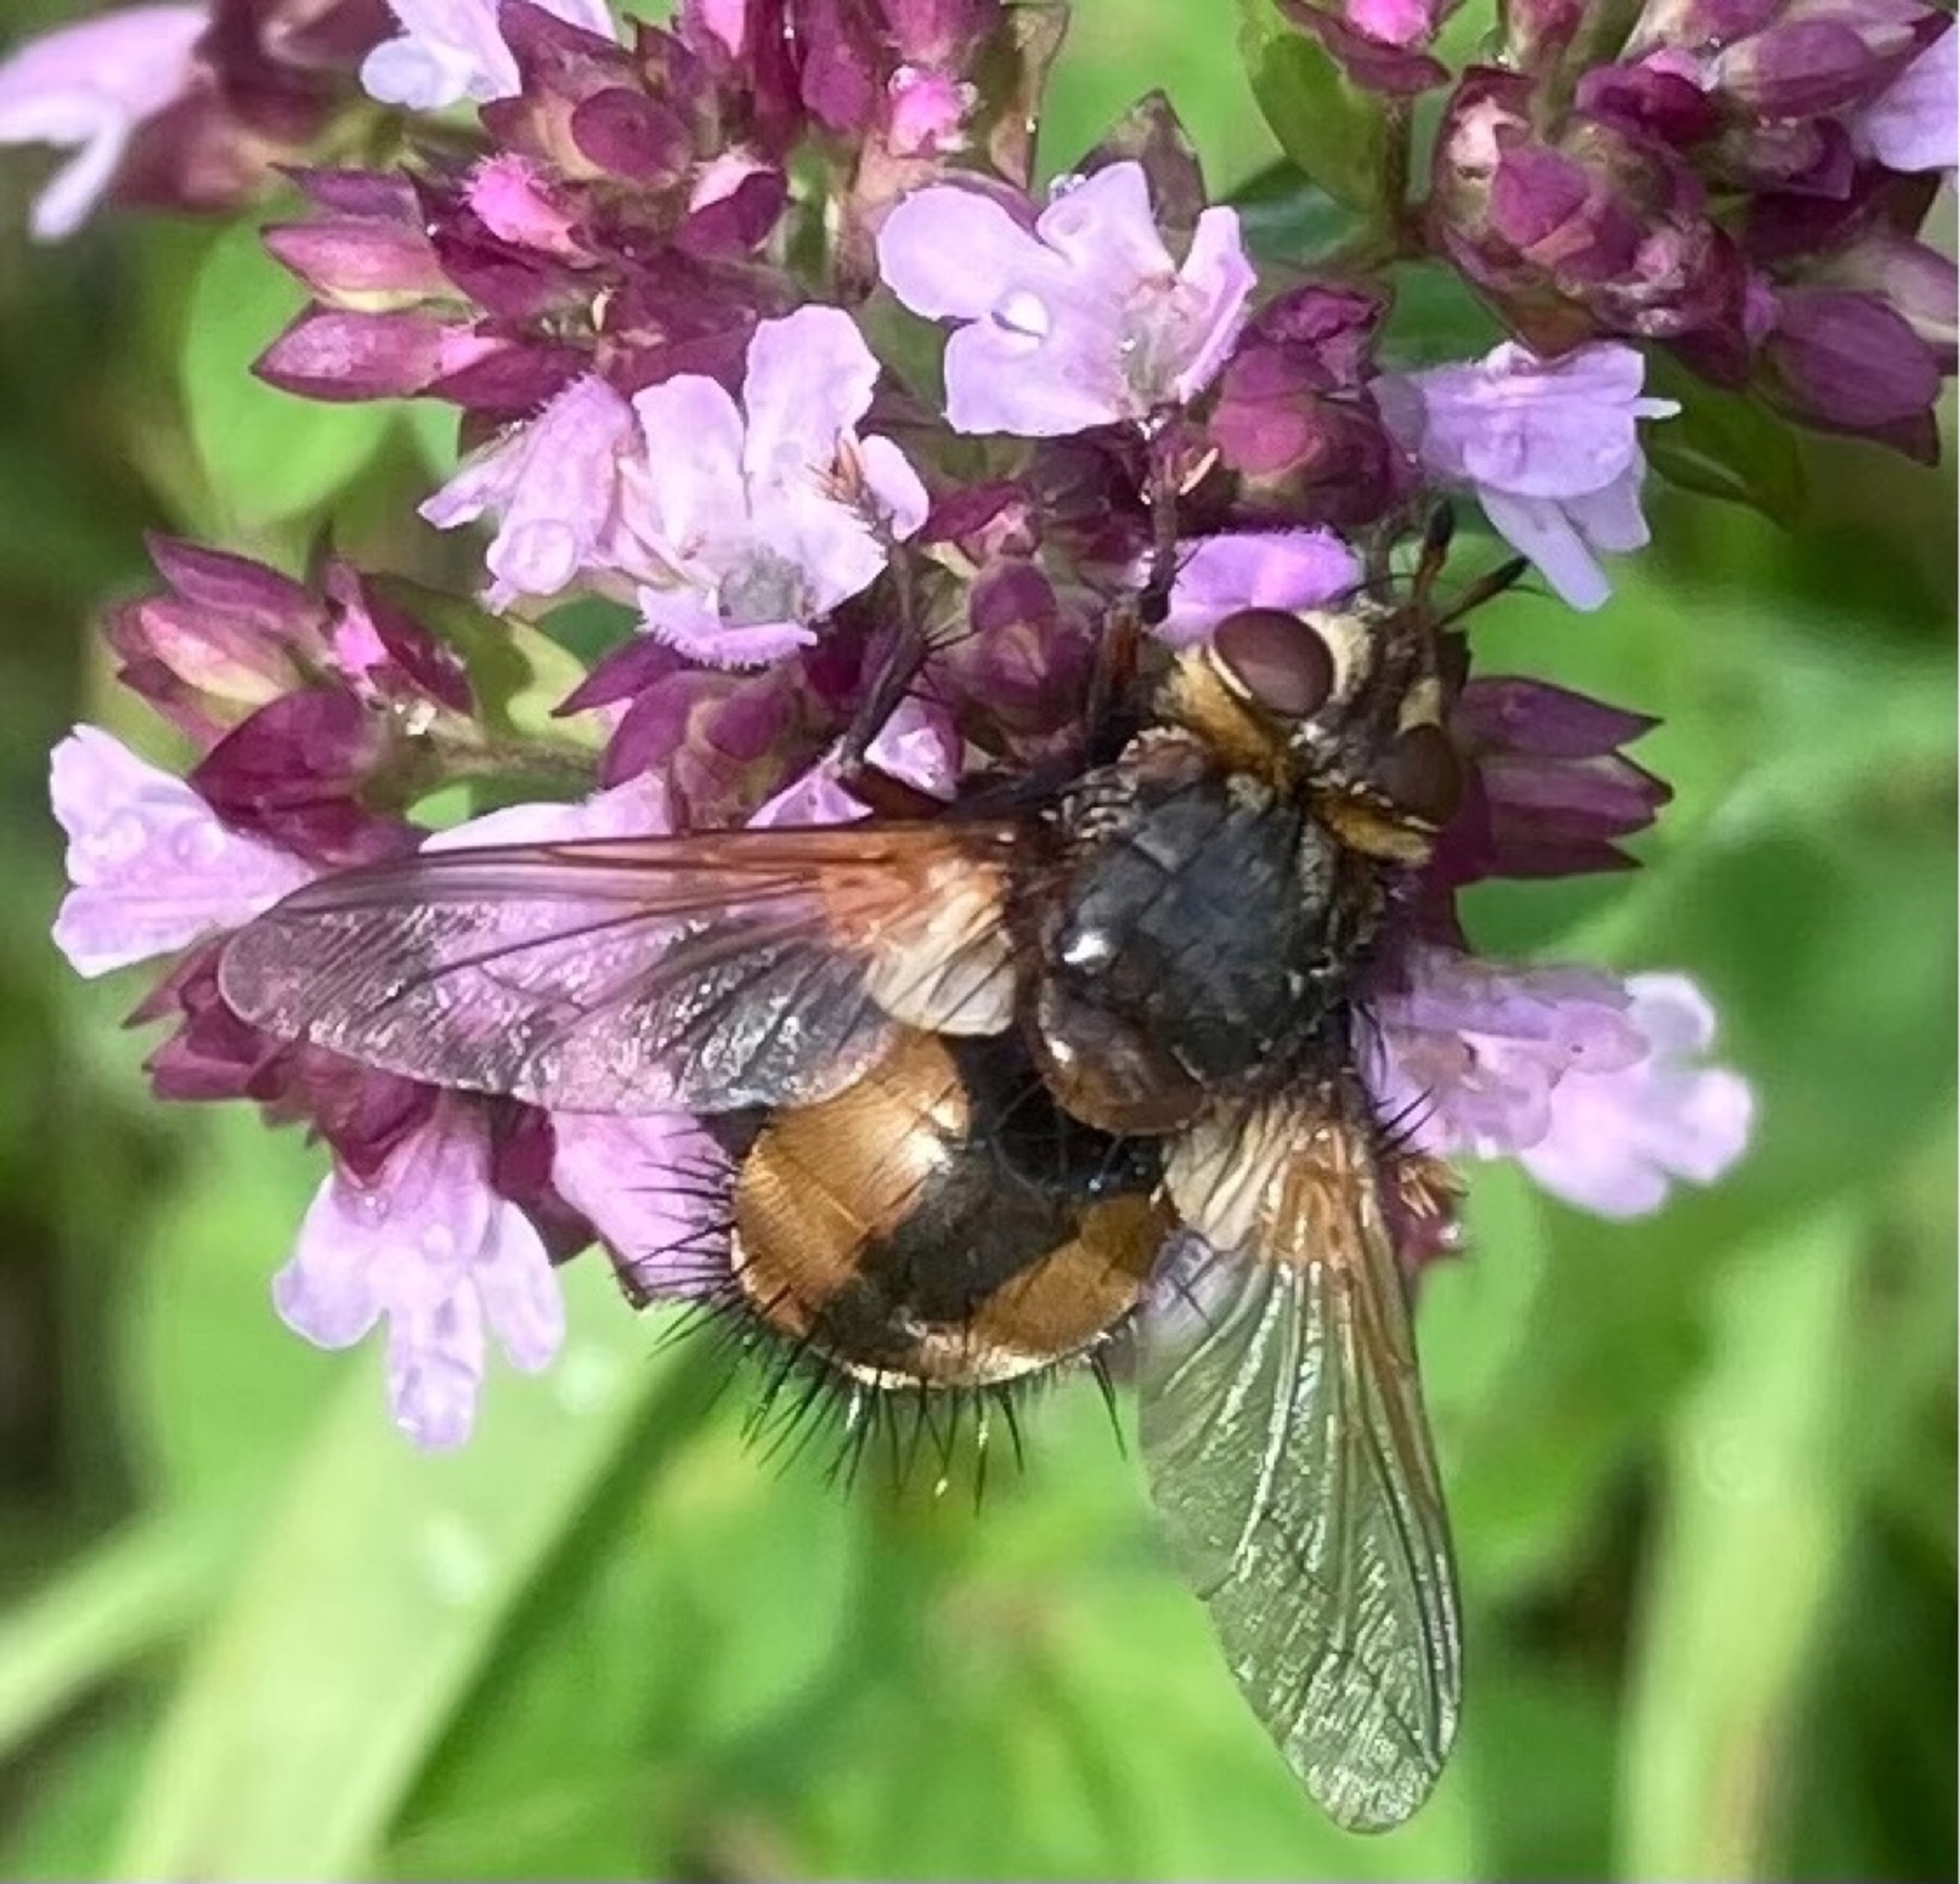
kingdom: Animalia
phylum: Arthropoda
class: Insecta
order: Diptera
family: Tachinidae
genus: Tachina
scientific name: Tachina fera
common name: Mellemfluen oskar
